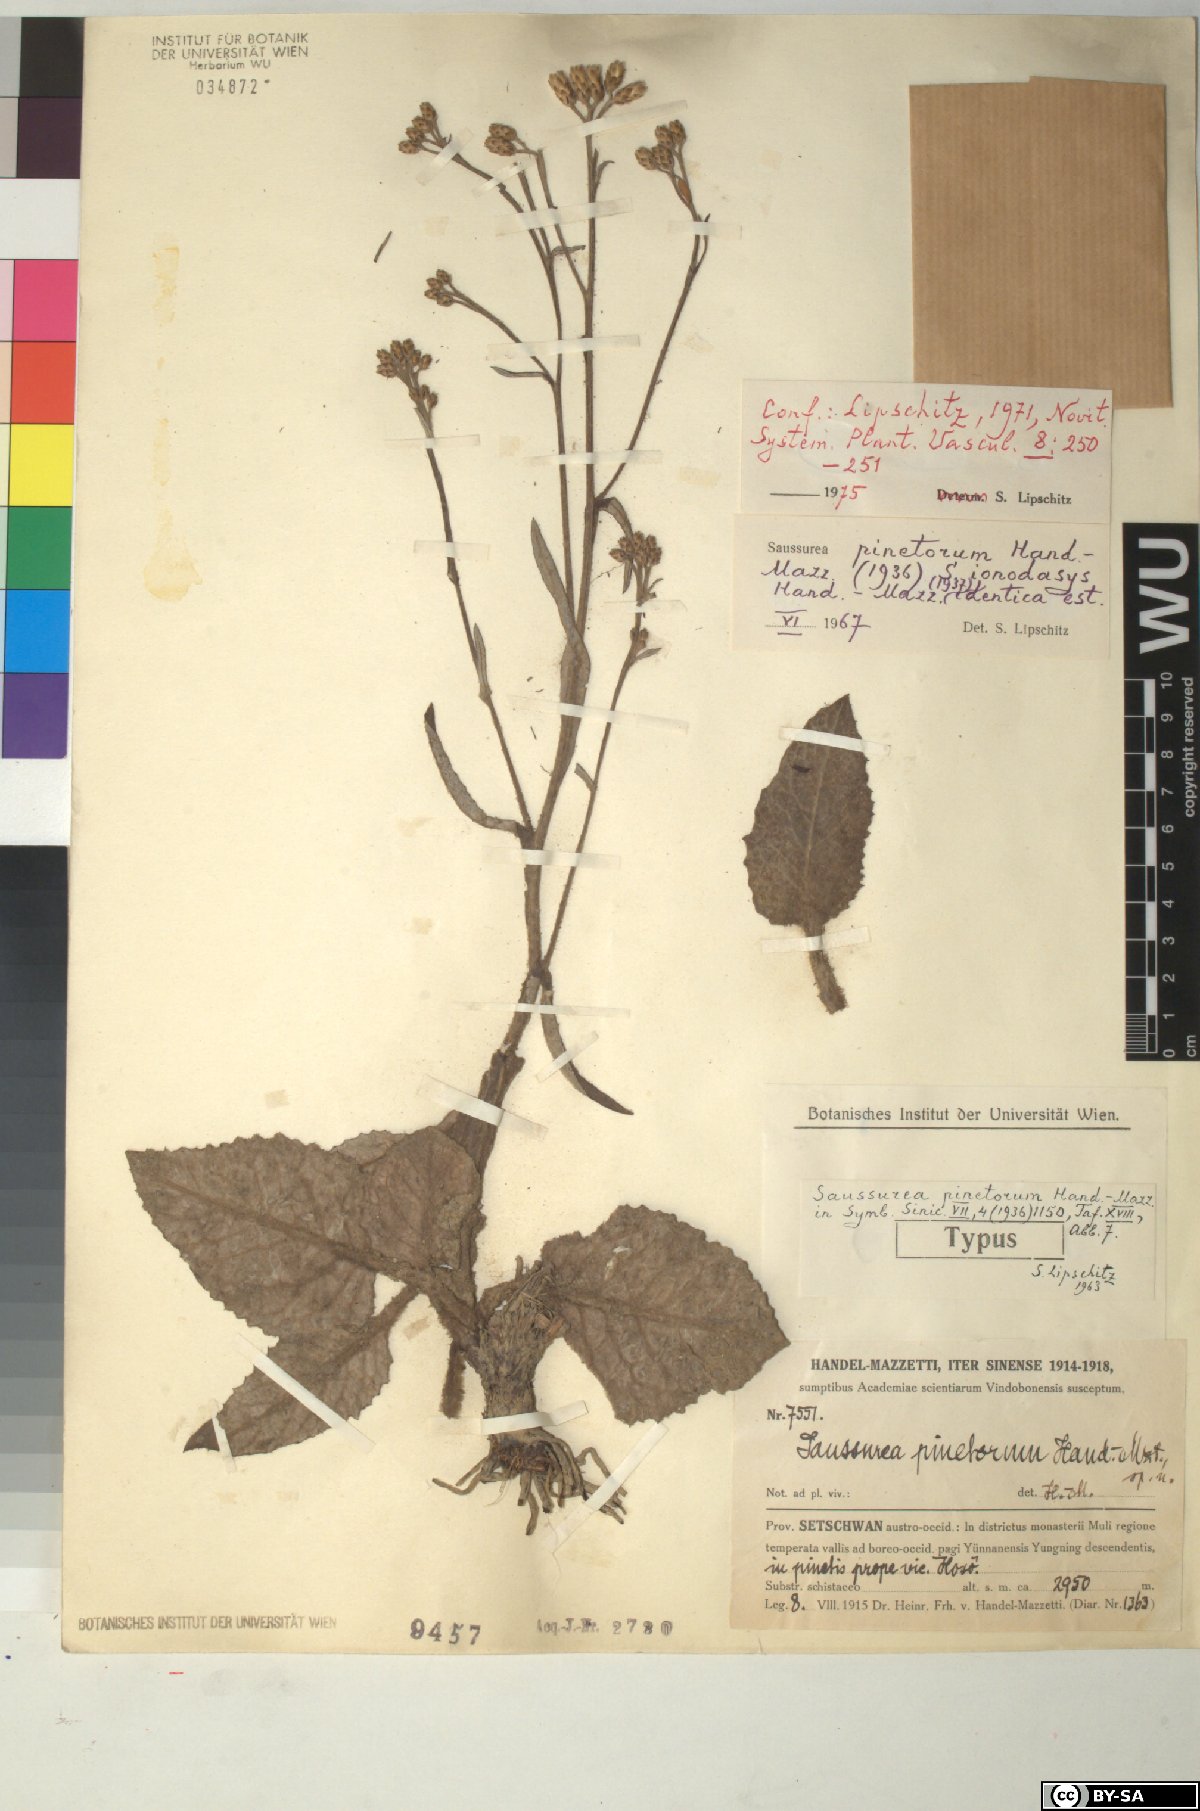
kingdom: Plantae
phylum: Tracheophyta
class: Magnoliopsida
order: Asterales
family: Asteraceae
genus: Saussurea
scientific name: Saussurea pinetorum
